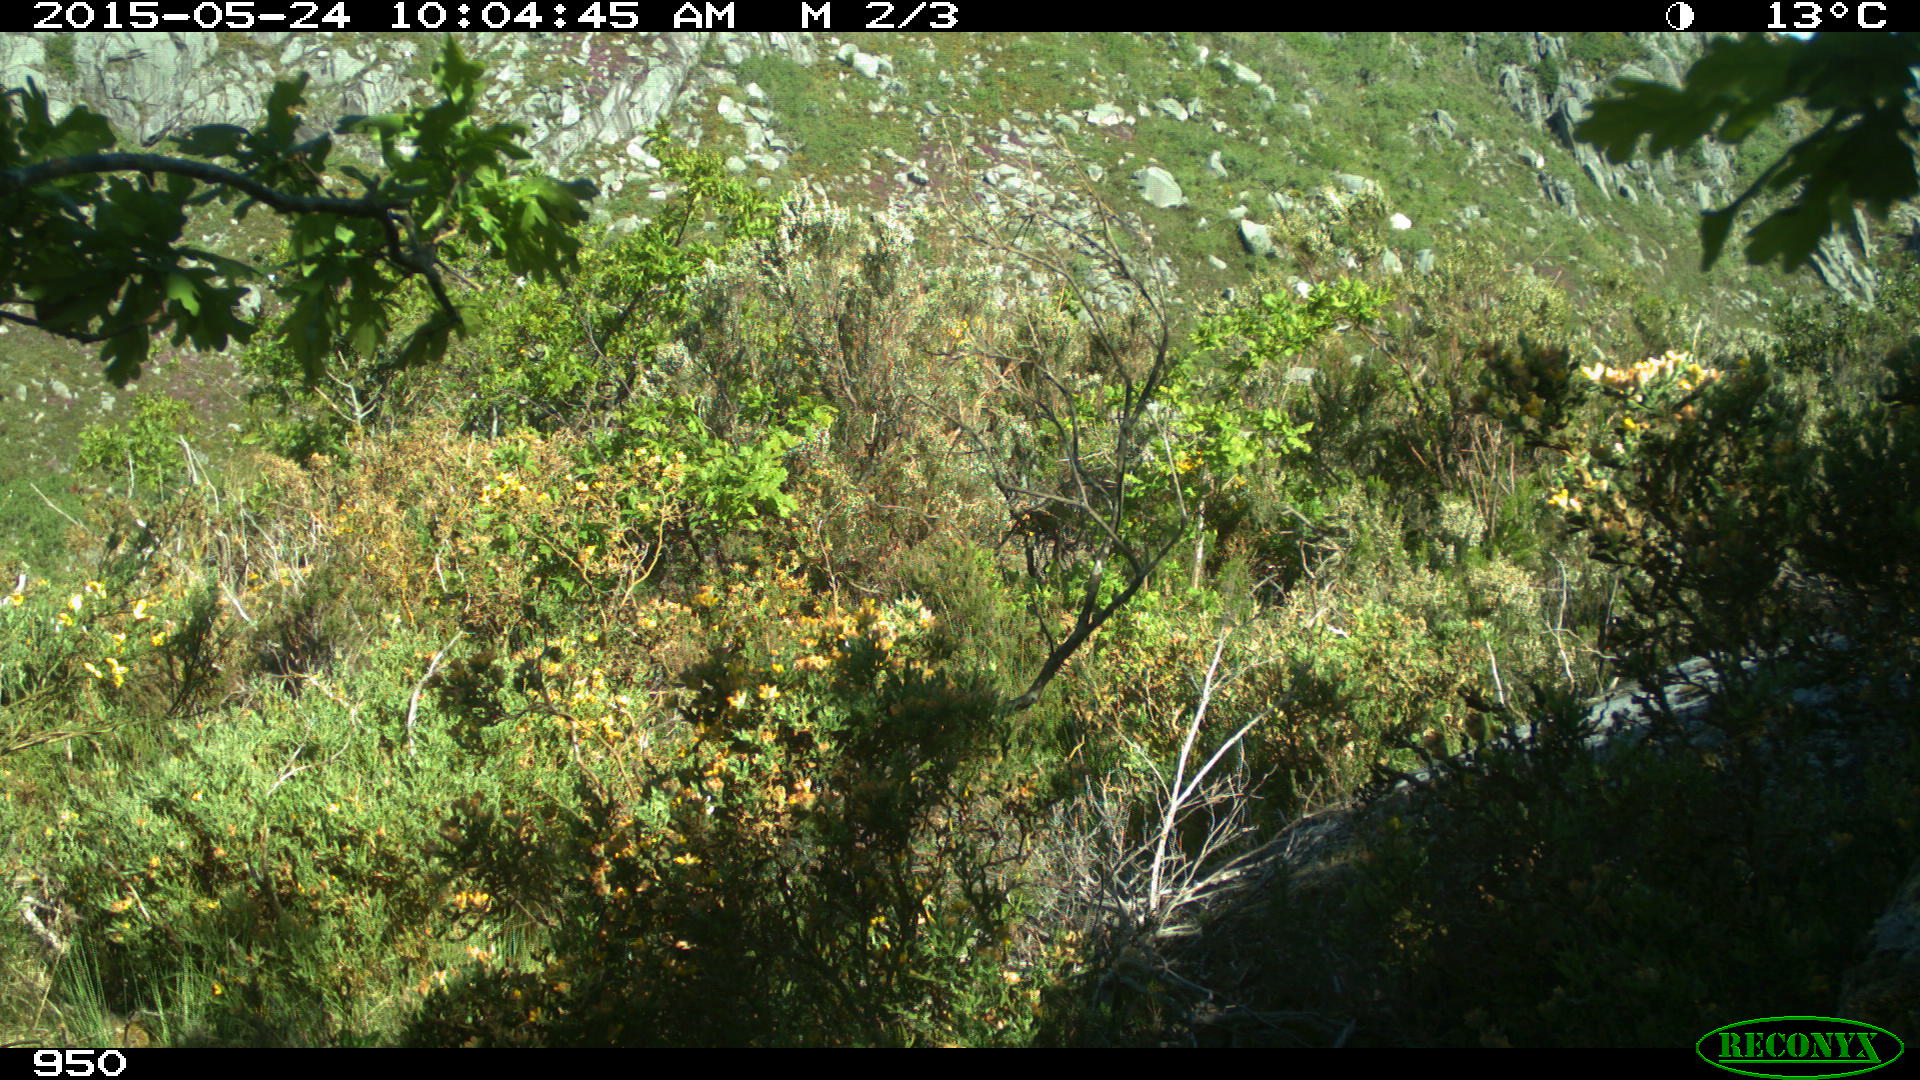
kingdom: Animalia
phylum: Chordata
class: Mammalia
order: Artiodactyla
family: Cervidae
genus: Capreolus
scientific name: Capreolus capreolus
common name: Western roe deer
